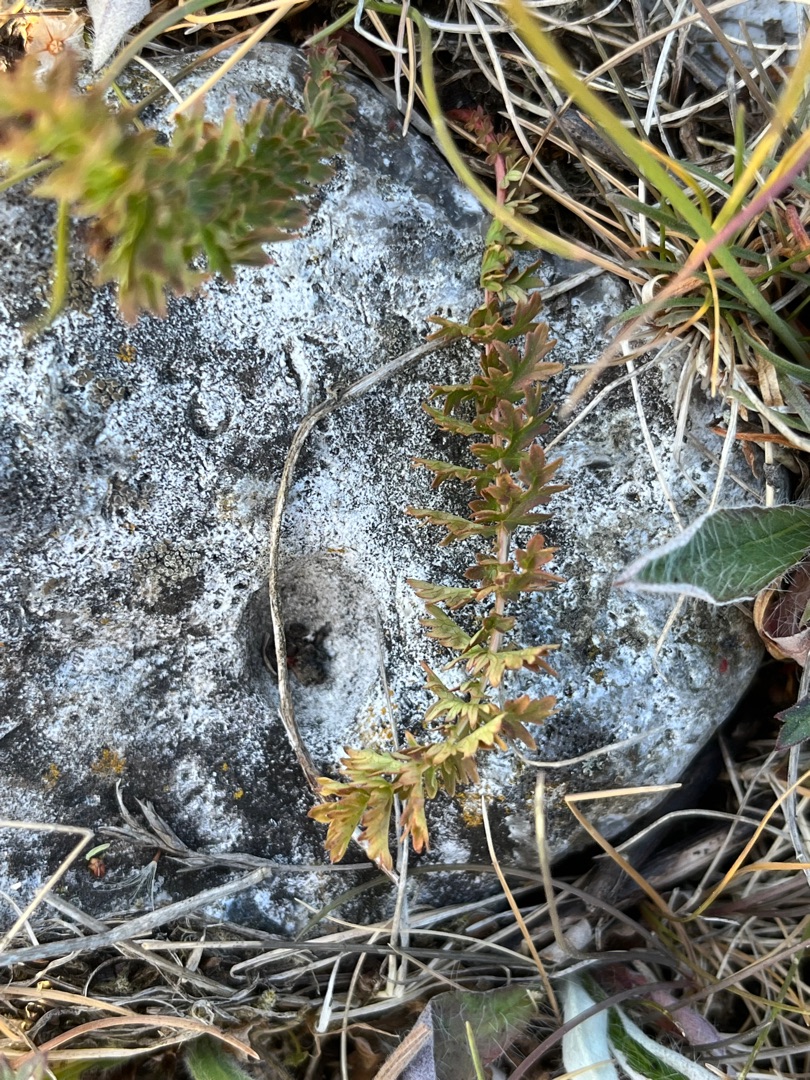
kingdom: Plantae
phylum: Tracheophyta
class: Magnoliopsida
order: Rosales
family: Rosaceae
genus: Filipendula
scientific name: Filipendula vulgaris
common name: Knoldet mjødurt
